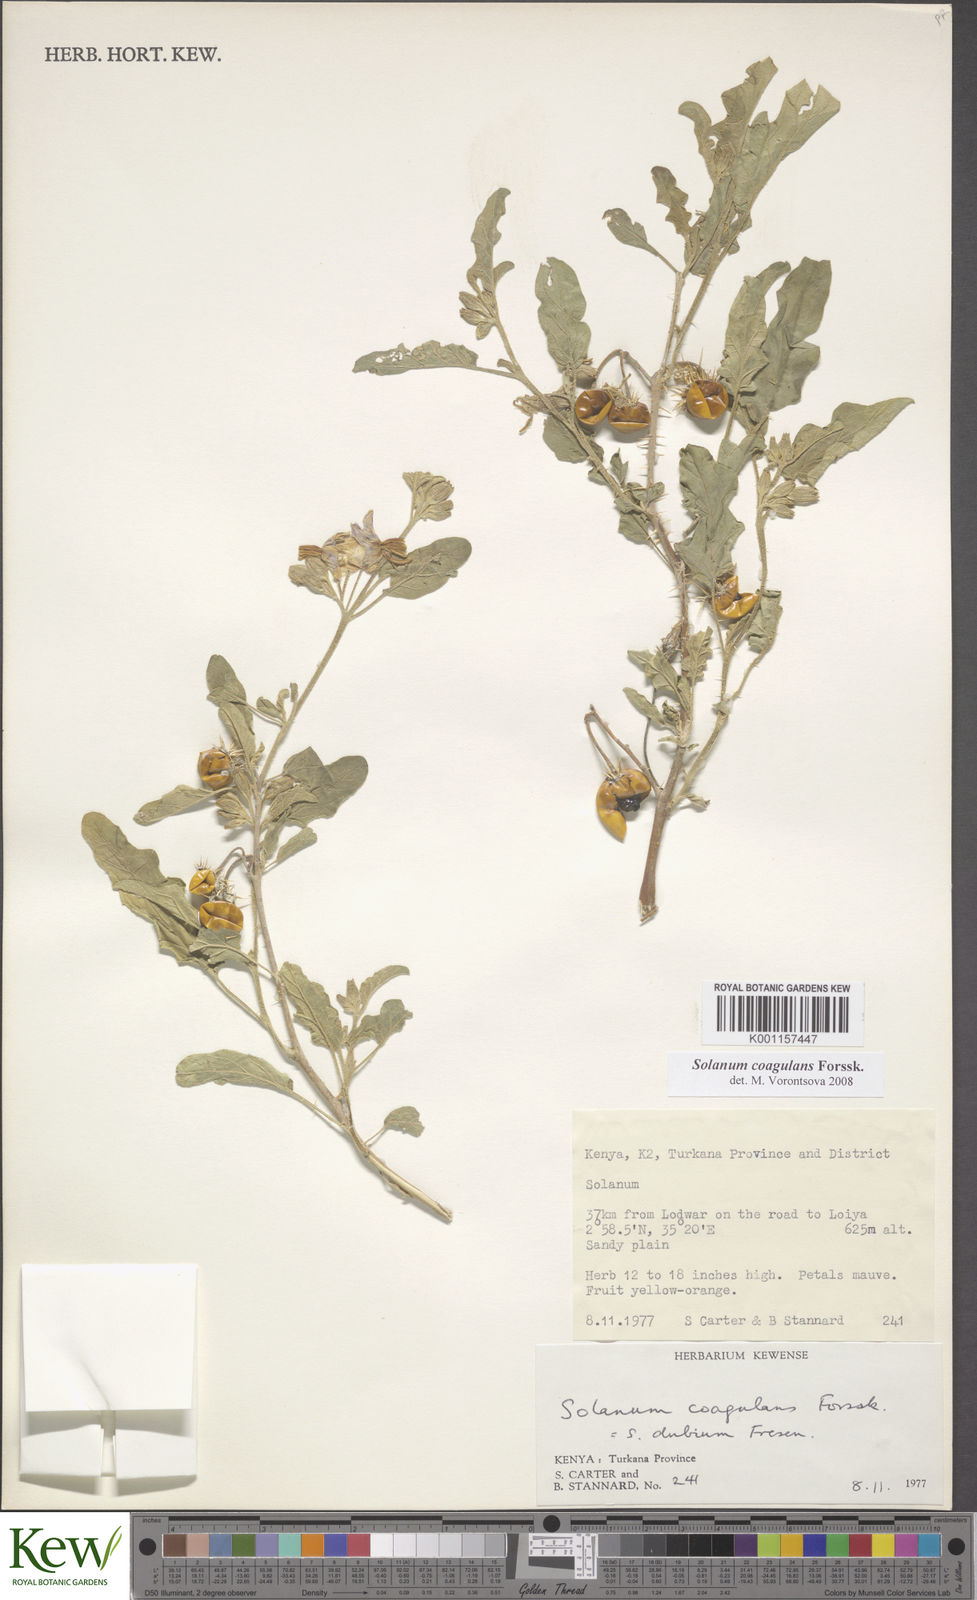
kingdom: Plantae
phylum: Tracheophyta
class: Magnoliopsida
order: Solanales
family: Solanaceae
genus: Solanum
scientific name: Solanum coagulans
